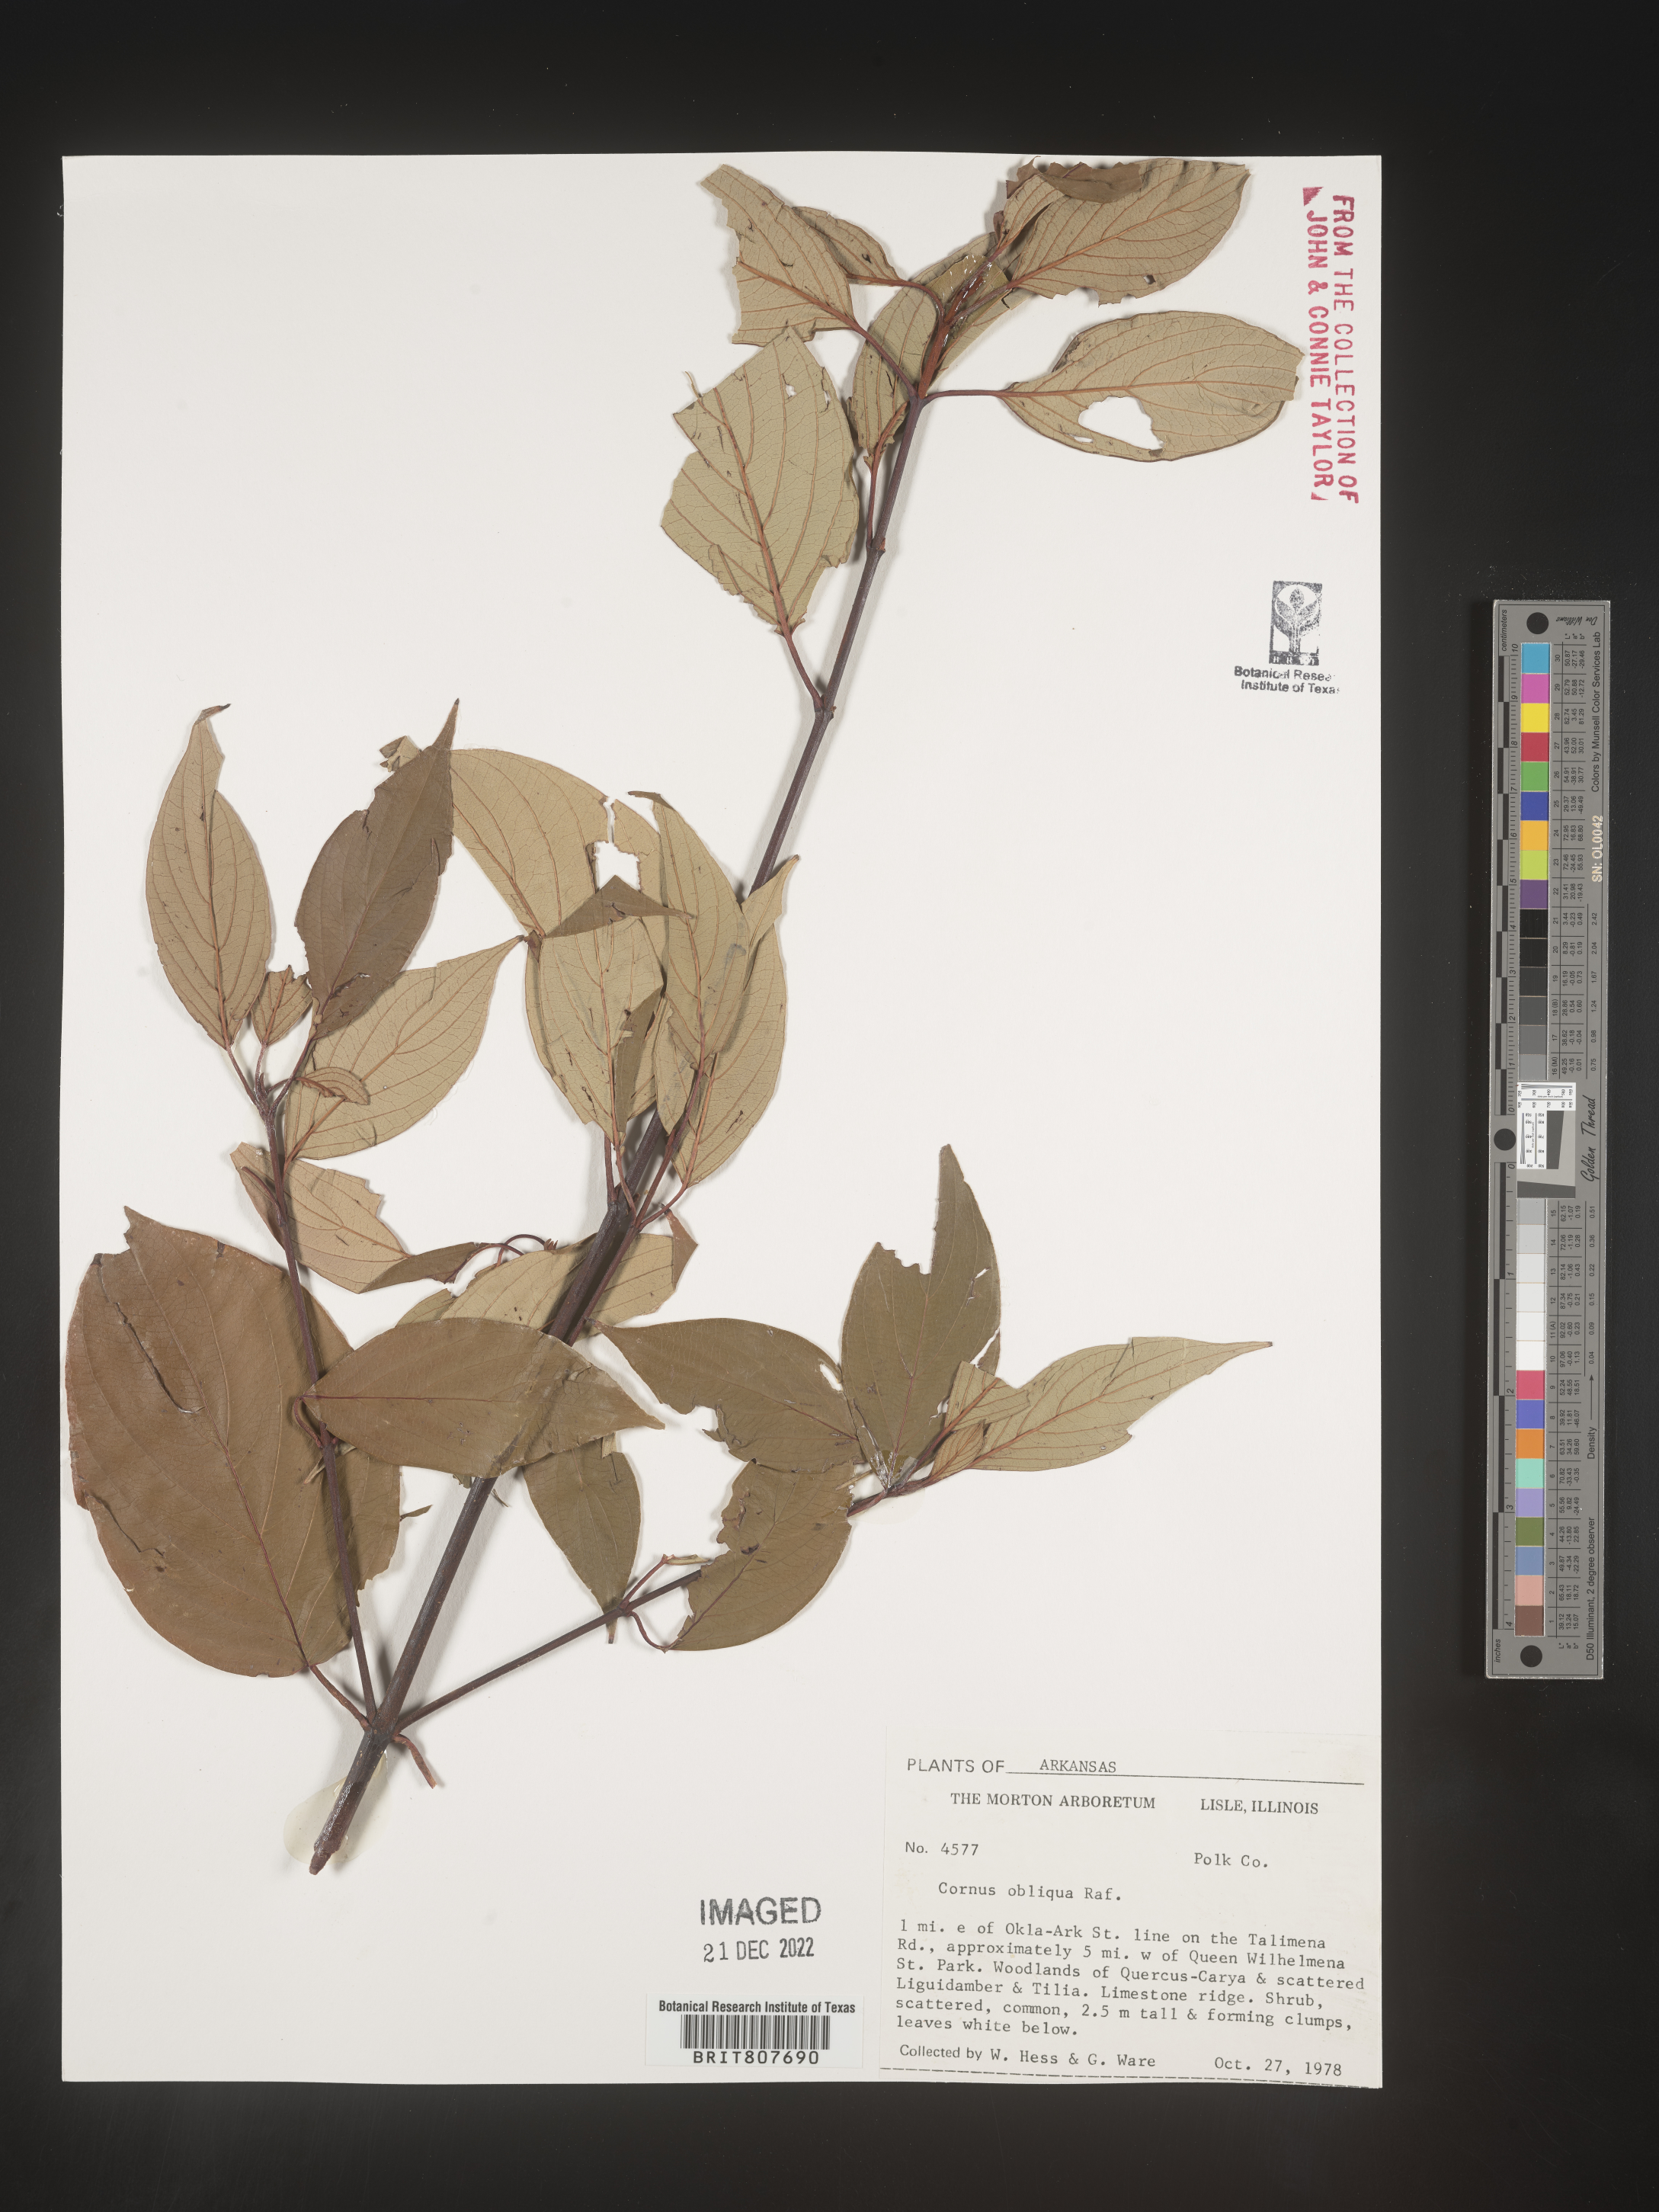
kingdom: Plantae
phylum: Tracheophyta
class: Magnoliopsida
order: Cornales
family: Cornaceae
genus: Cornus
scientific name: Cornus obliqua
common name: Pale dogwood
